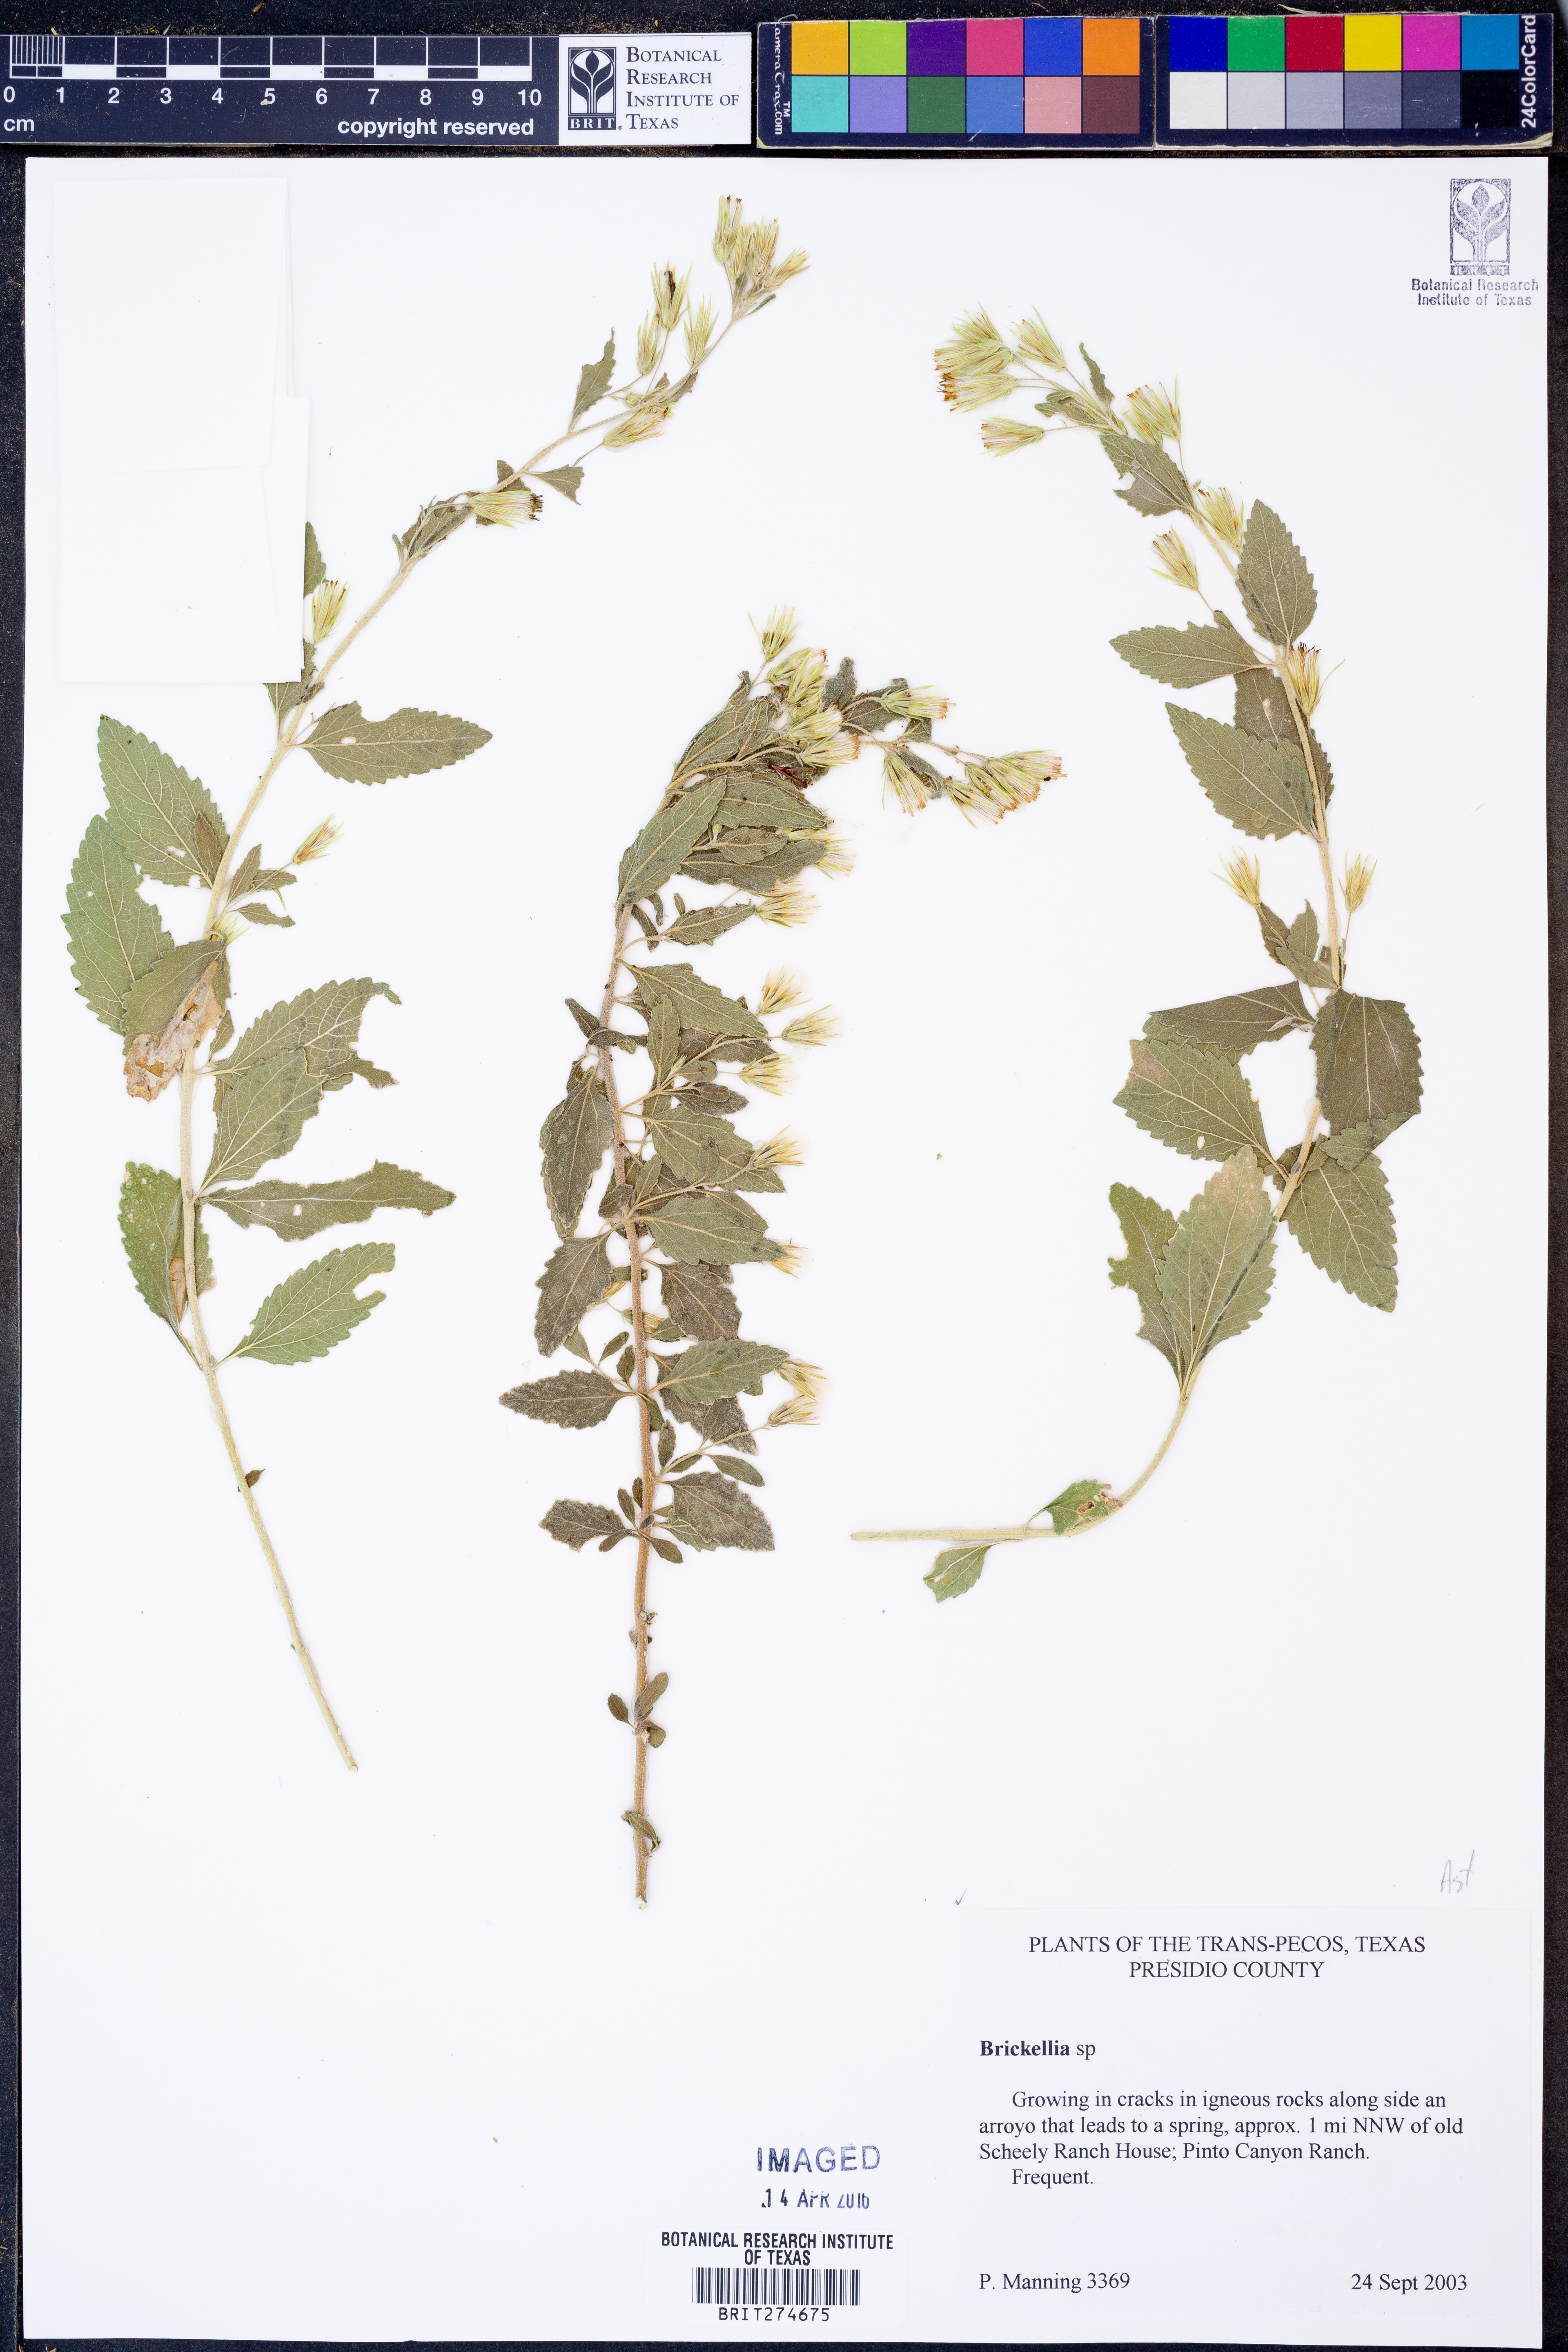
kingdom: Plantae
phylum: Tracheophyta
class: Magnoliopsida
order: Asterales
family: Asteraceae
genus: Brickellia
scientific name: Brickellia
